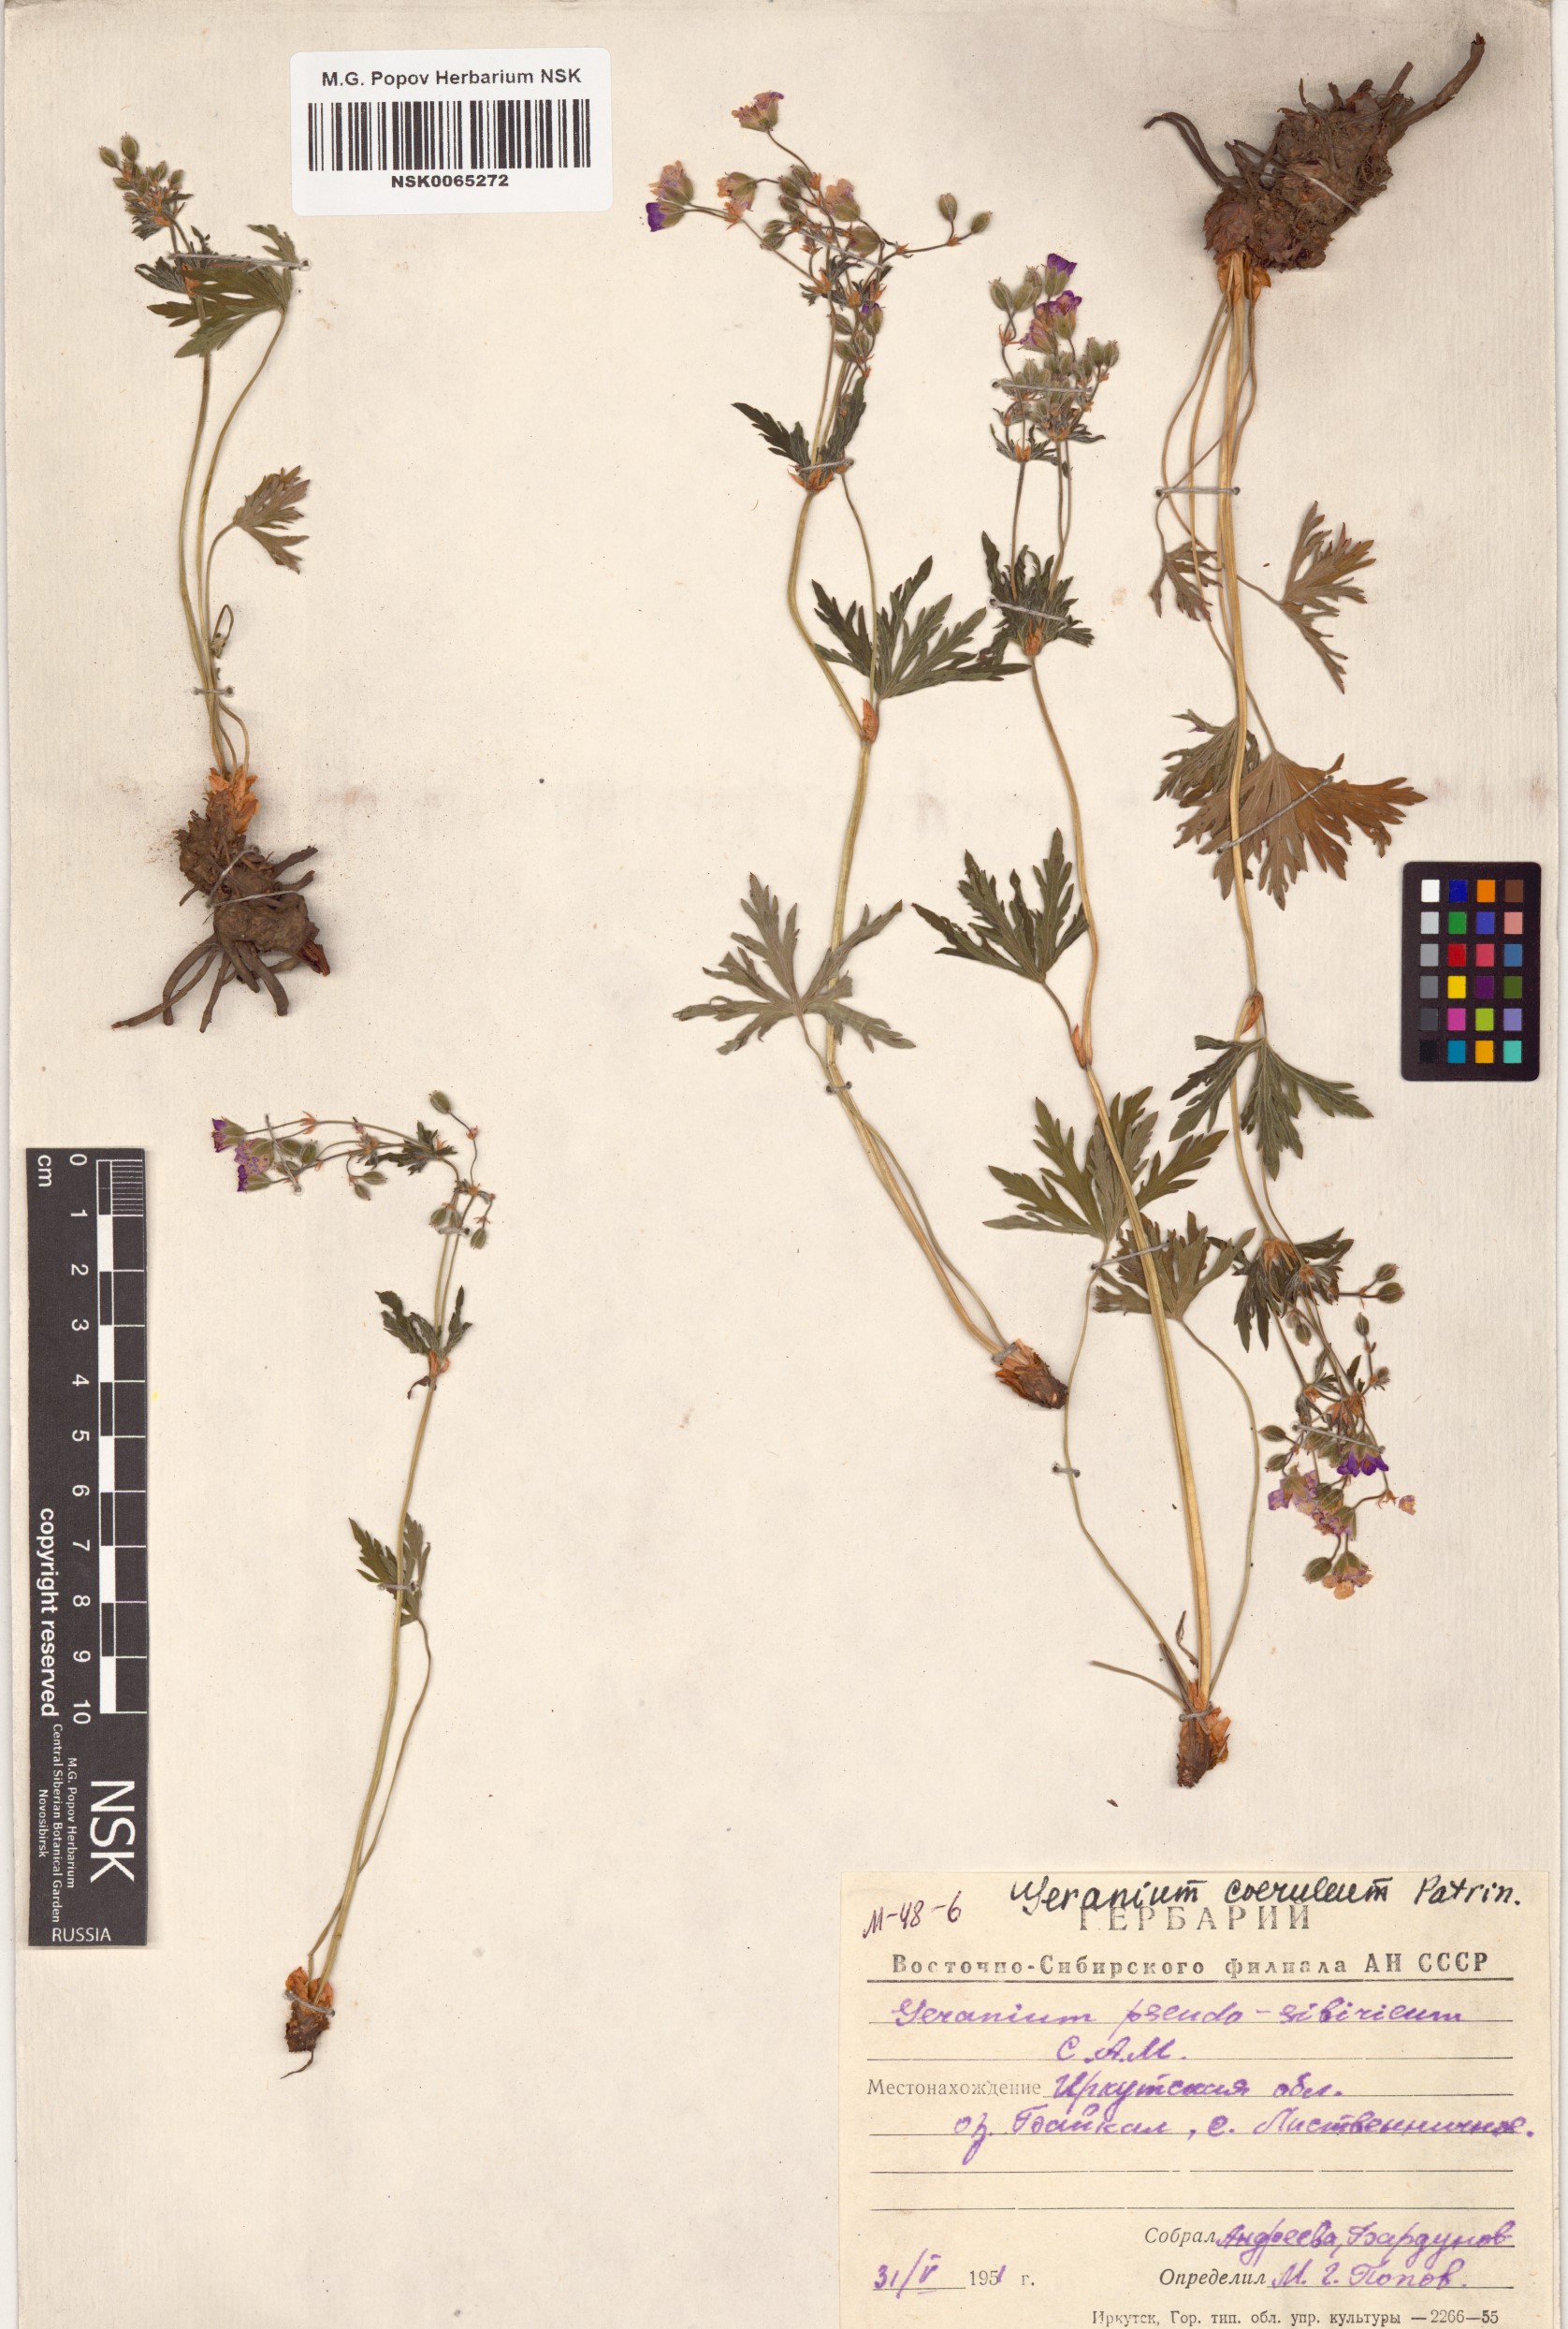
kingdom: Plantae
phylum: Tracheophyta
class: Magnoliopsida
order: Geraniales
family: Geraniaceae
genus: Geranium
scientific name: Geranium pseudosibiricum
